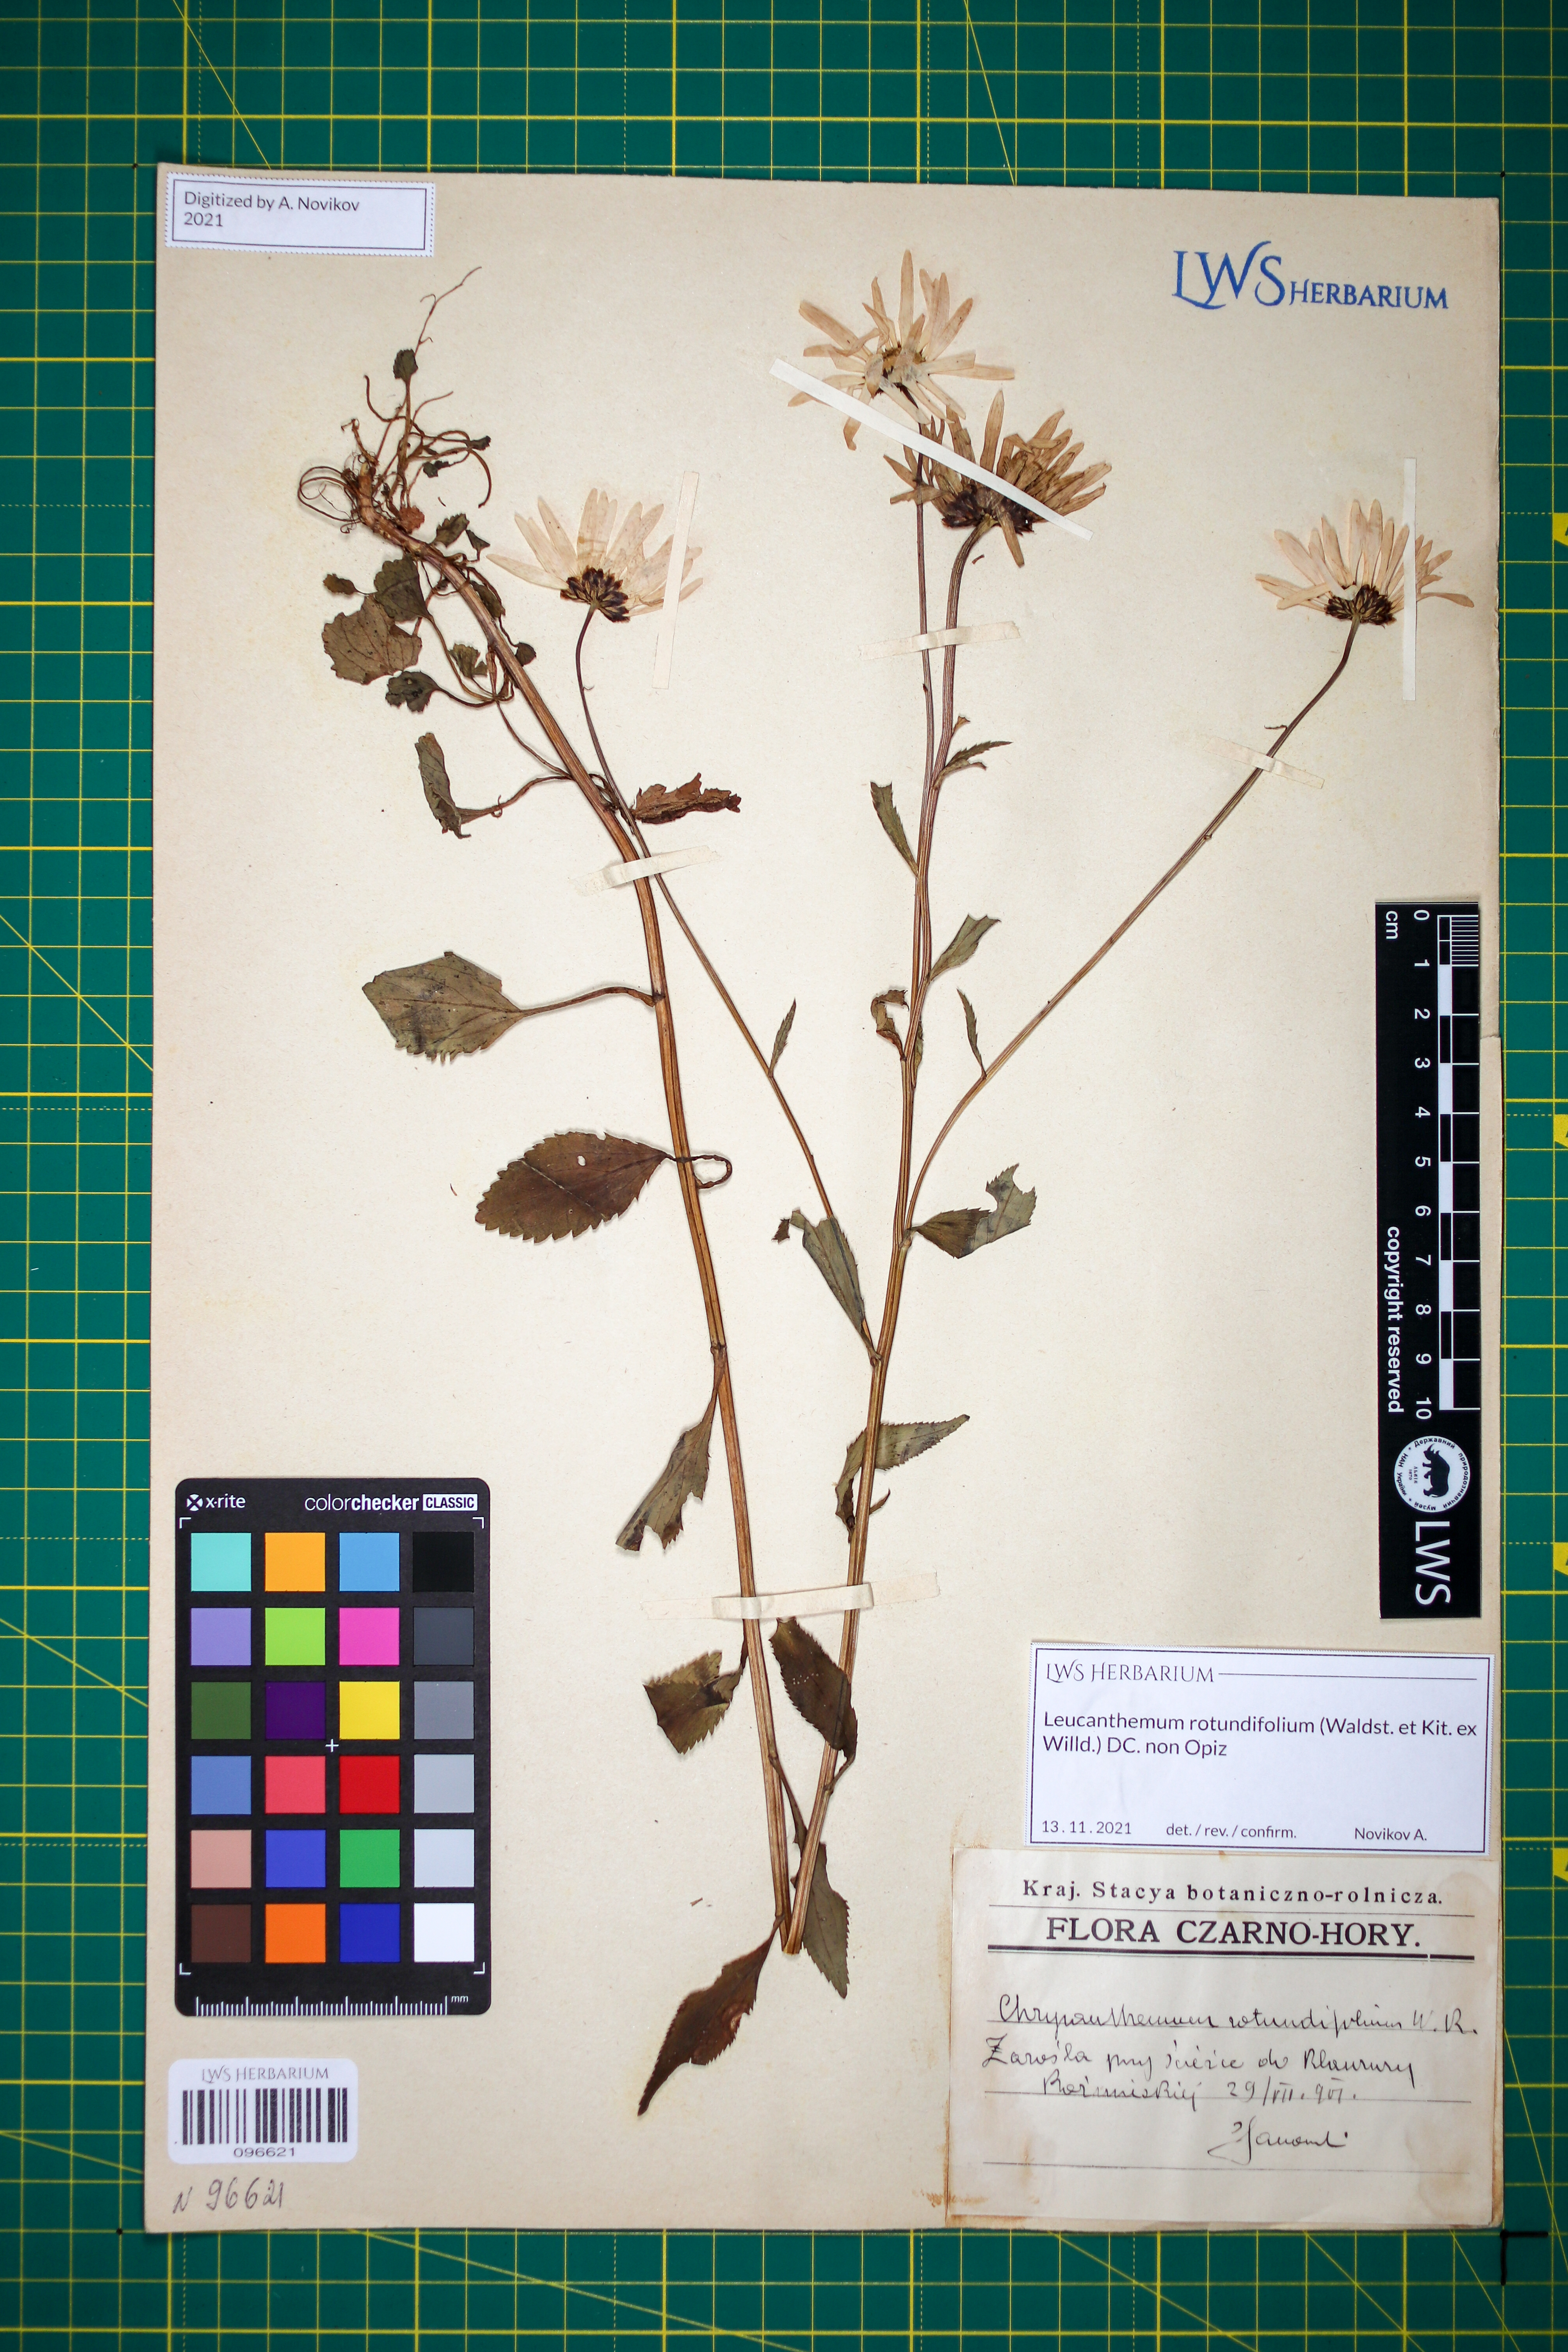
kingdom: Plantae
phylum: Tracheophyta
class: Magnoliopsida
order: Asterales
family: Asteraceae
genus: Leucanthemum
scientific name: Leucanthemum rotundifolium
